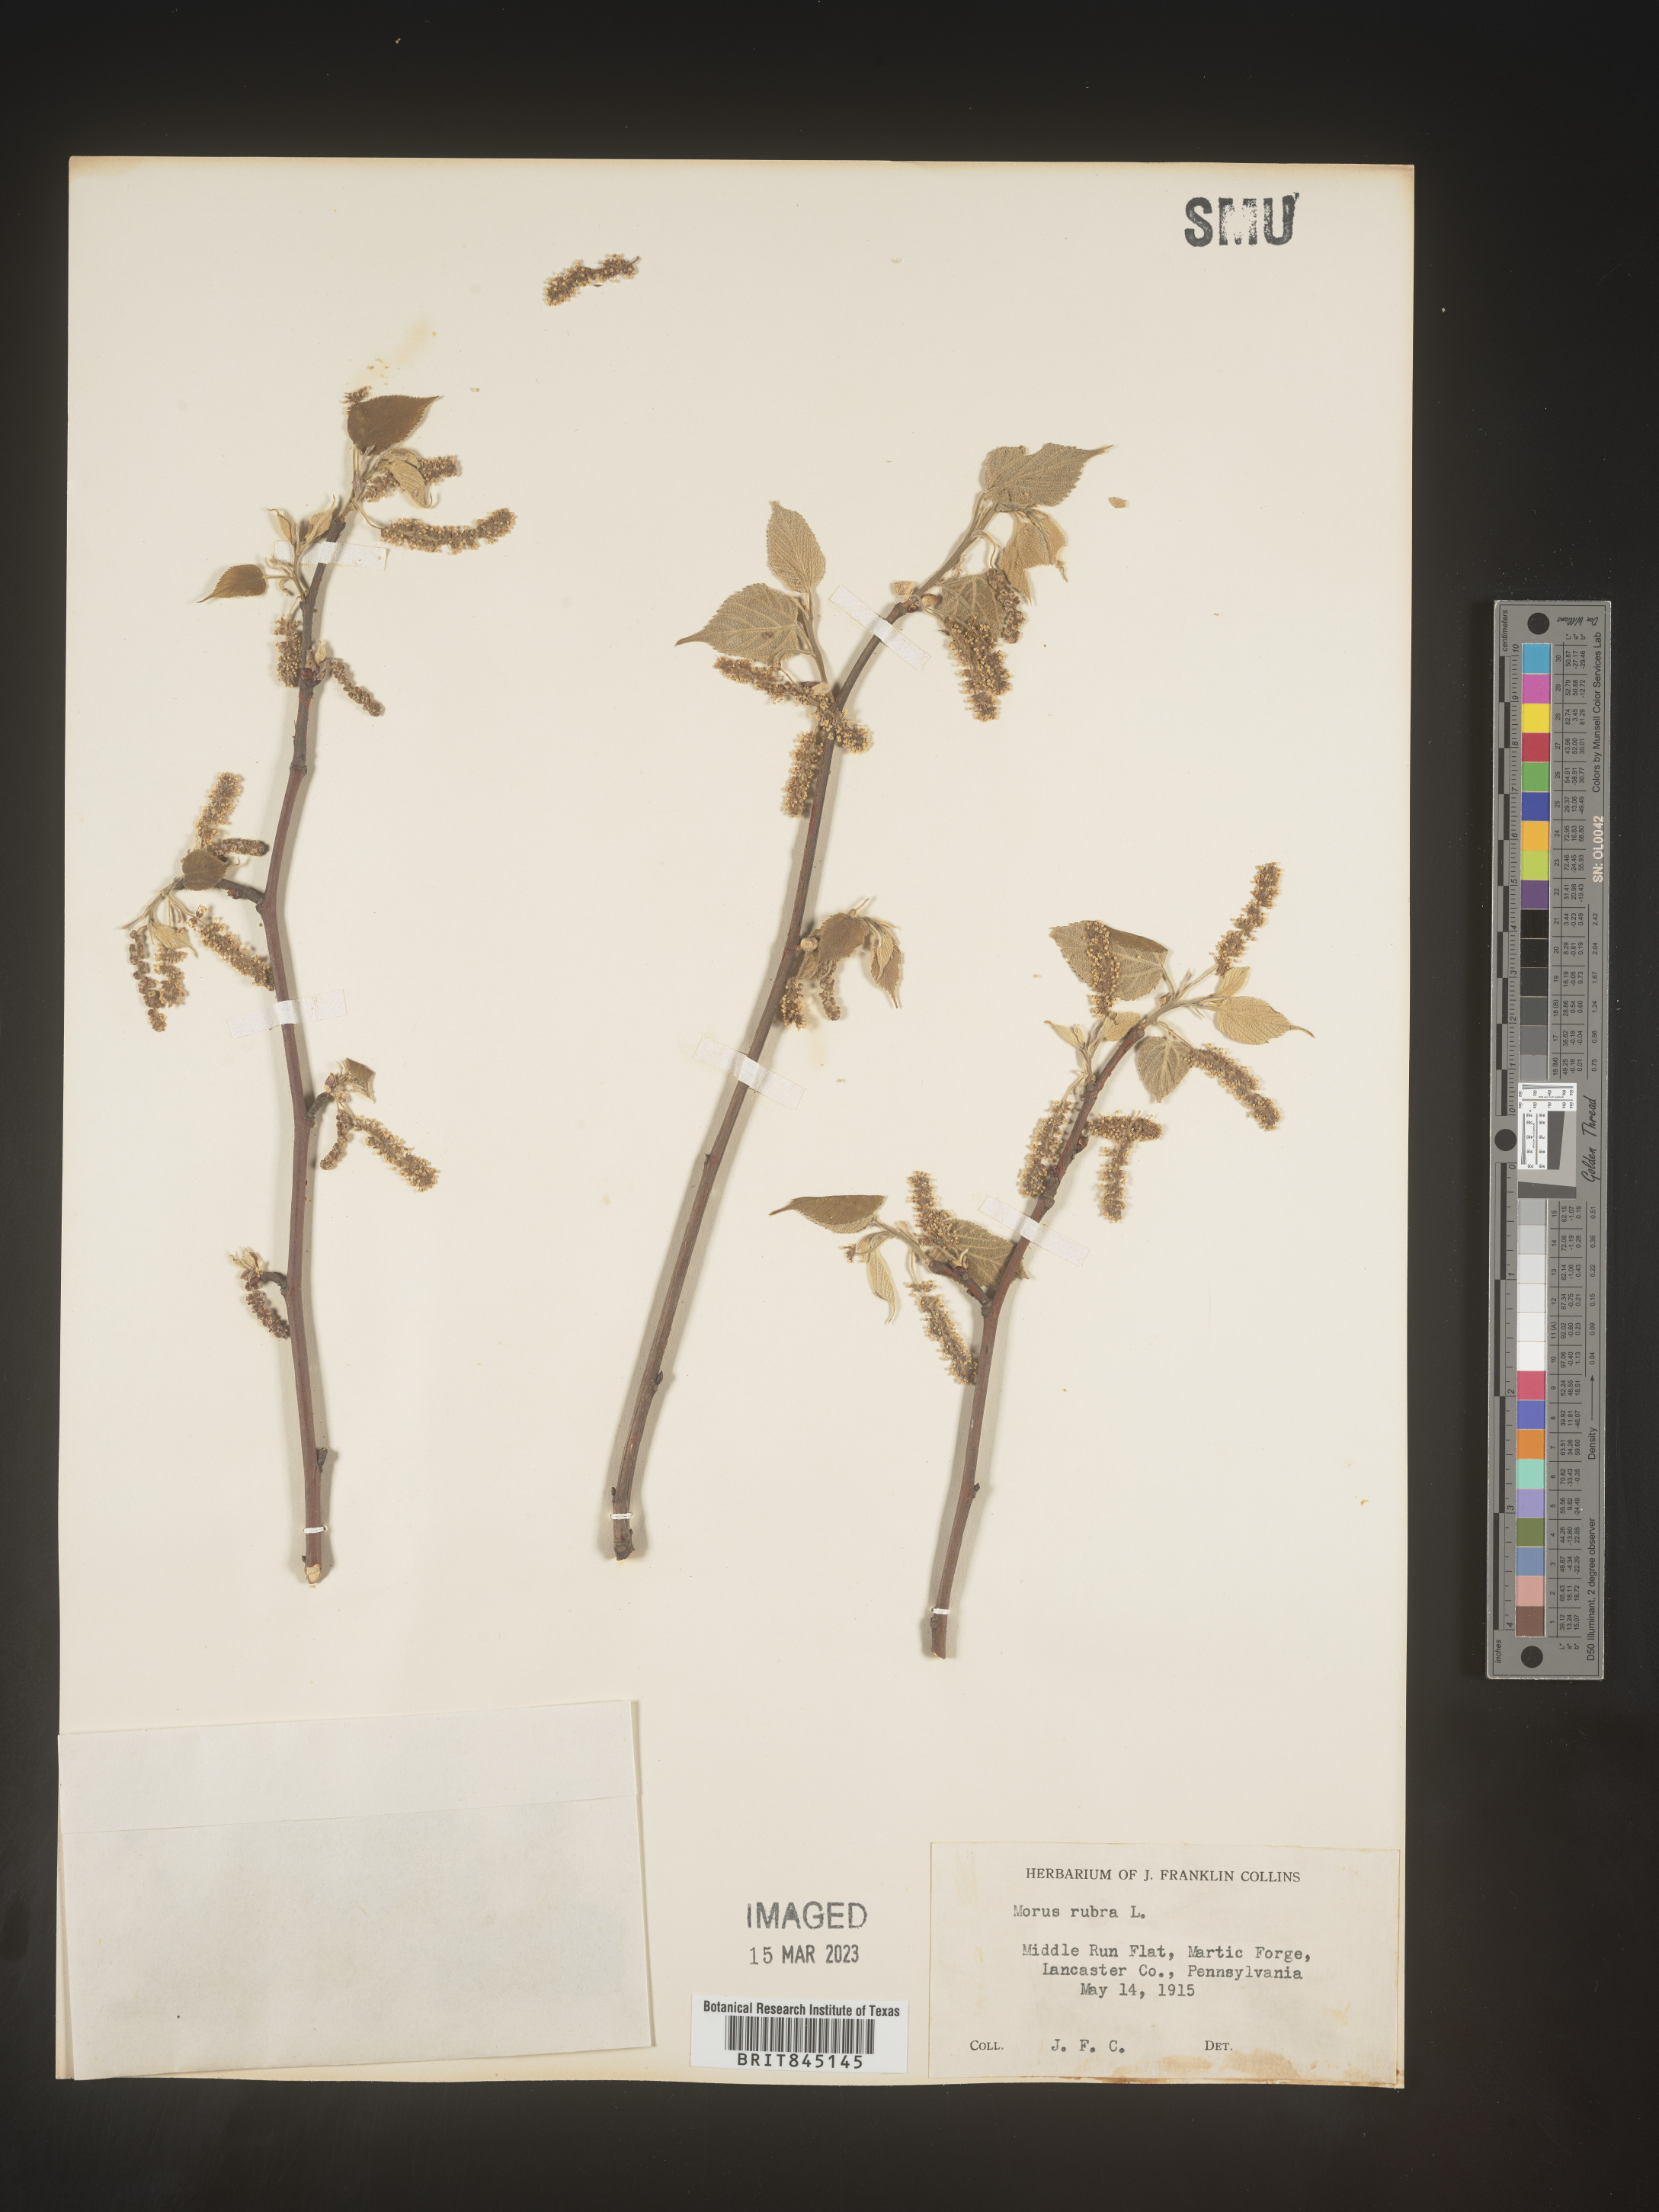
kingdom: Plantae
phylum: Tracheophyta
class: Magnoliopsida
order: Rosales
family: Moraceae
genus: Morus
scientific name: Morus rubra
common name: Red mulberry
